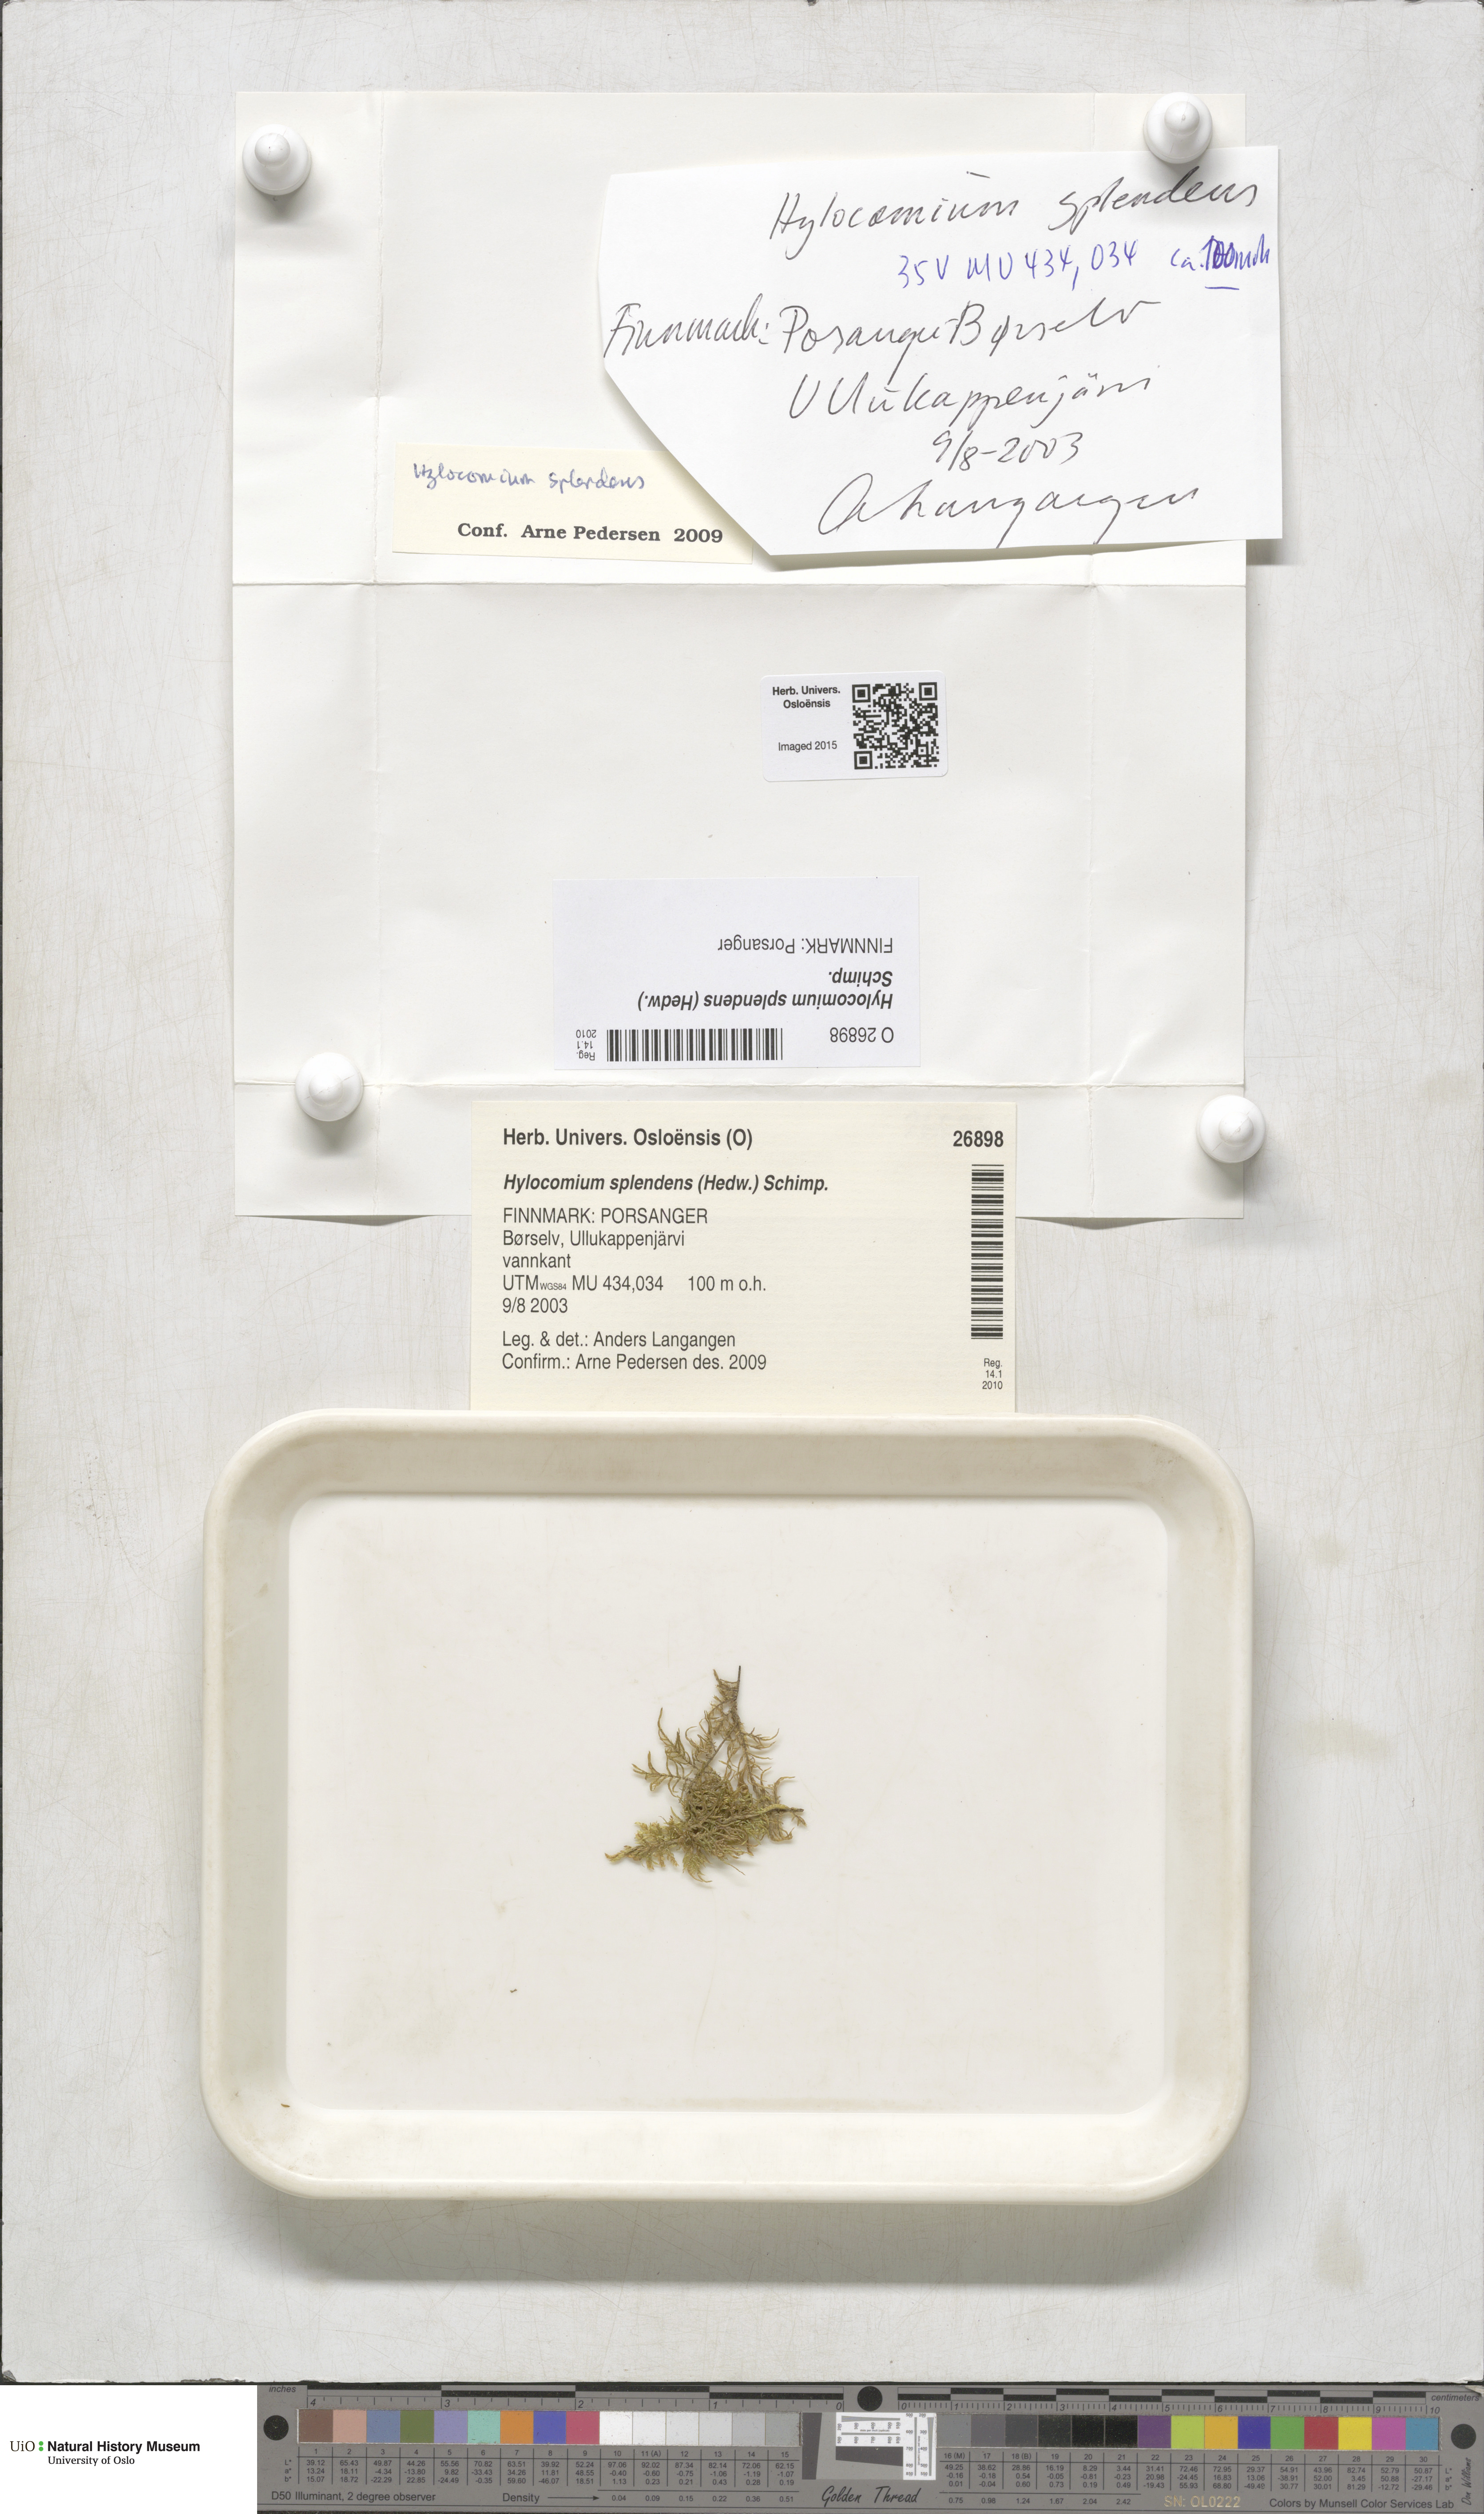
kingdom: Plantae
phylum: Bryophyta
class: Bryopsida
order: Hypnales
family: Hylocomiaceae
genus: Hylocomium
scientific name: Hylocomium splendens
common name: Stairstep moss
